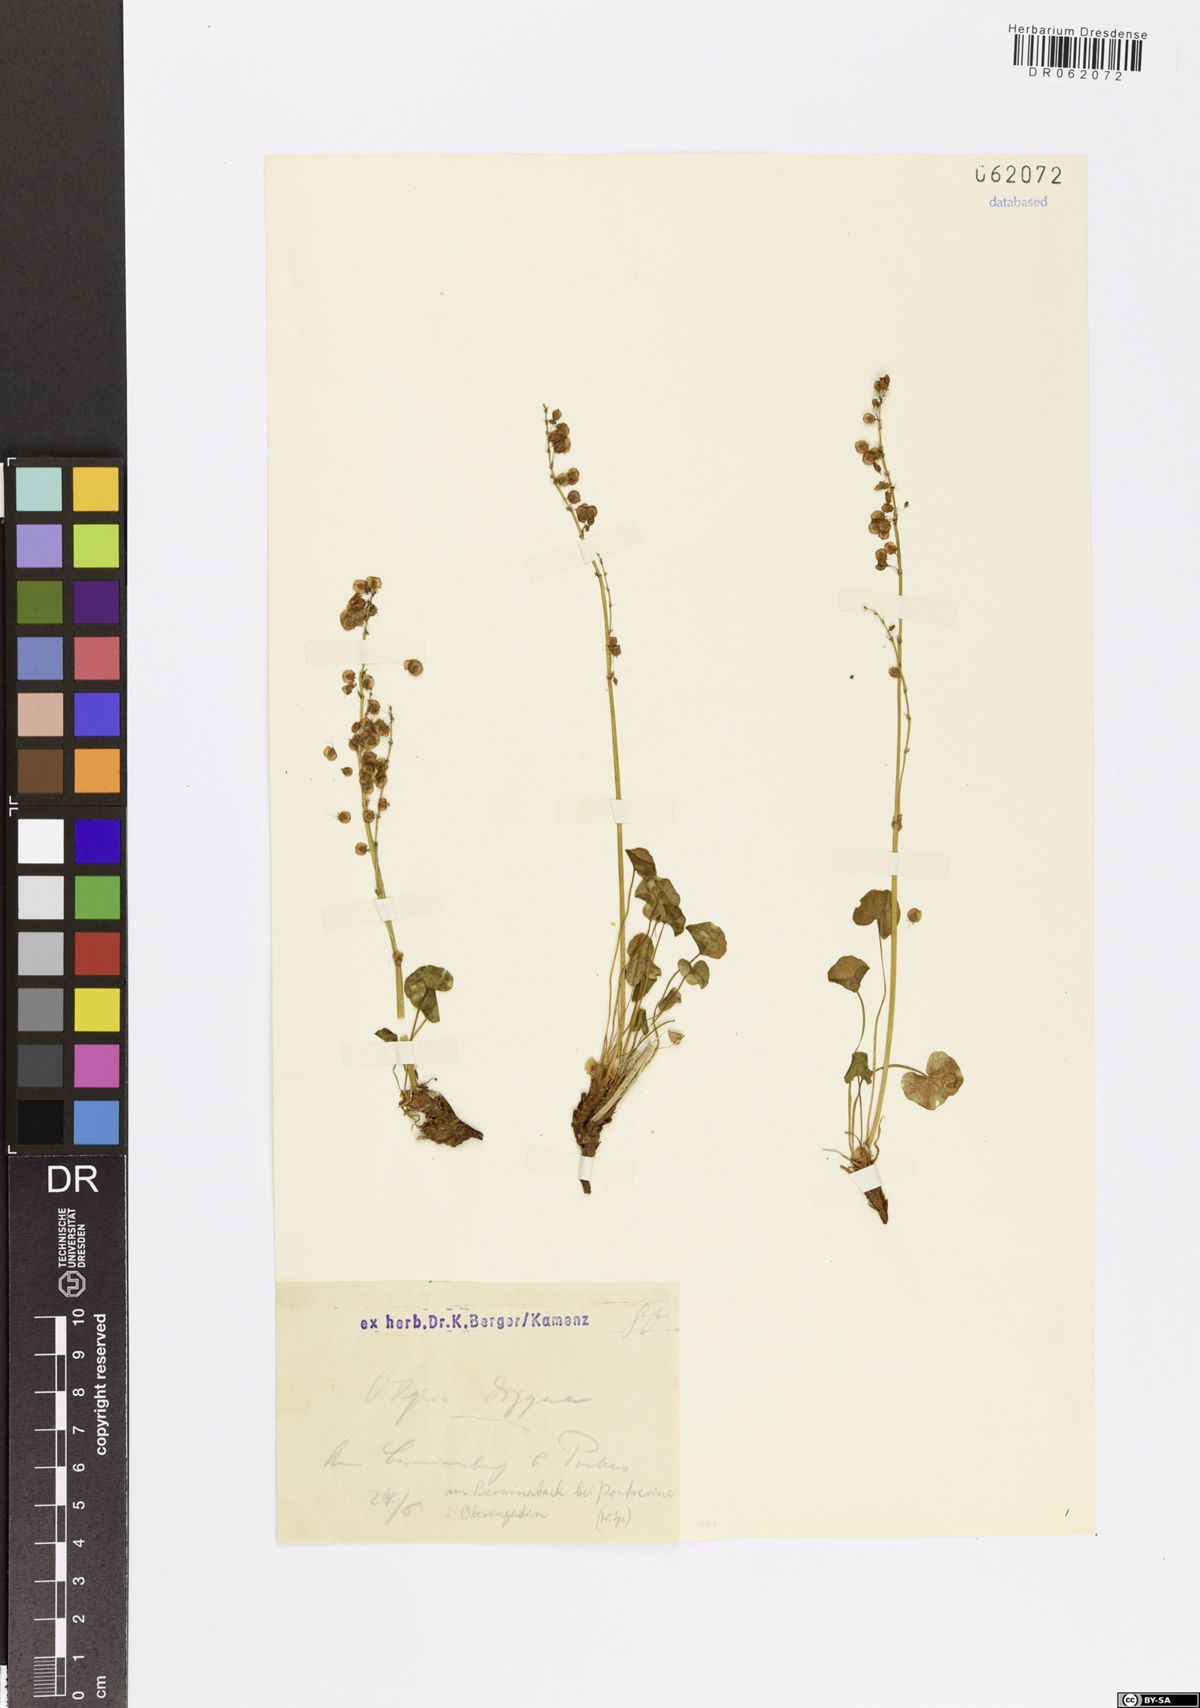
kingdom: Plantae
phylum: Tracheophyta
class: Magnoliopsida
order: Caryophyllales
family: Polygonaceae
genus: Oxyria
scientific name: Oxyria digyna
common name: Alpine mountain-sorrel
